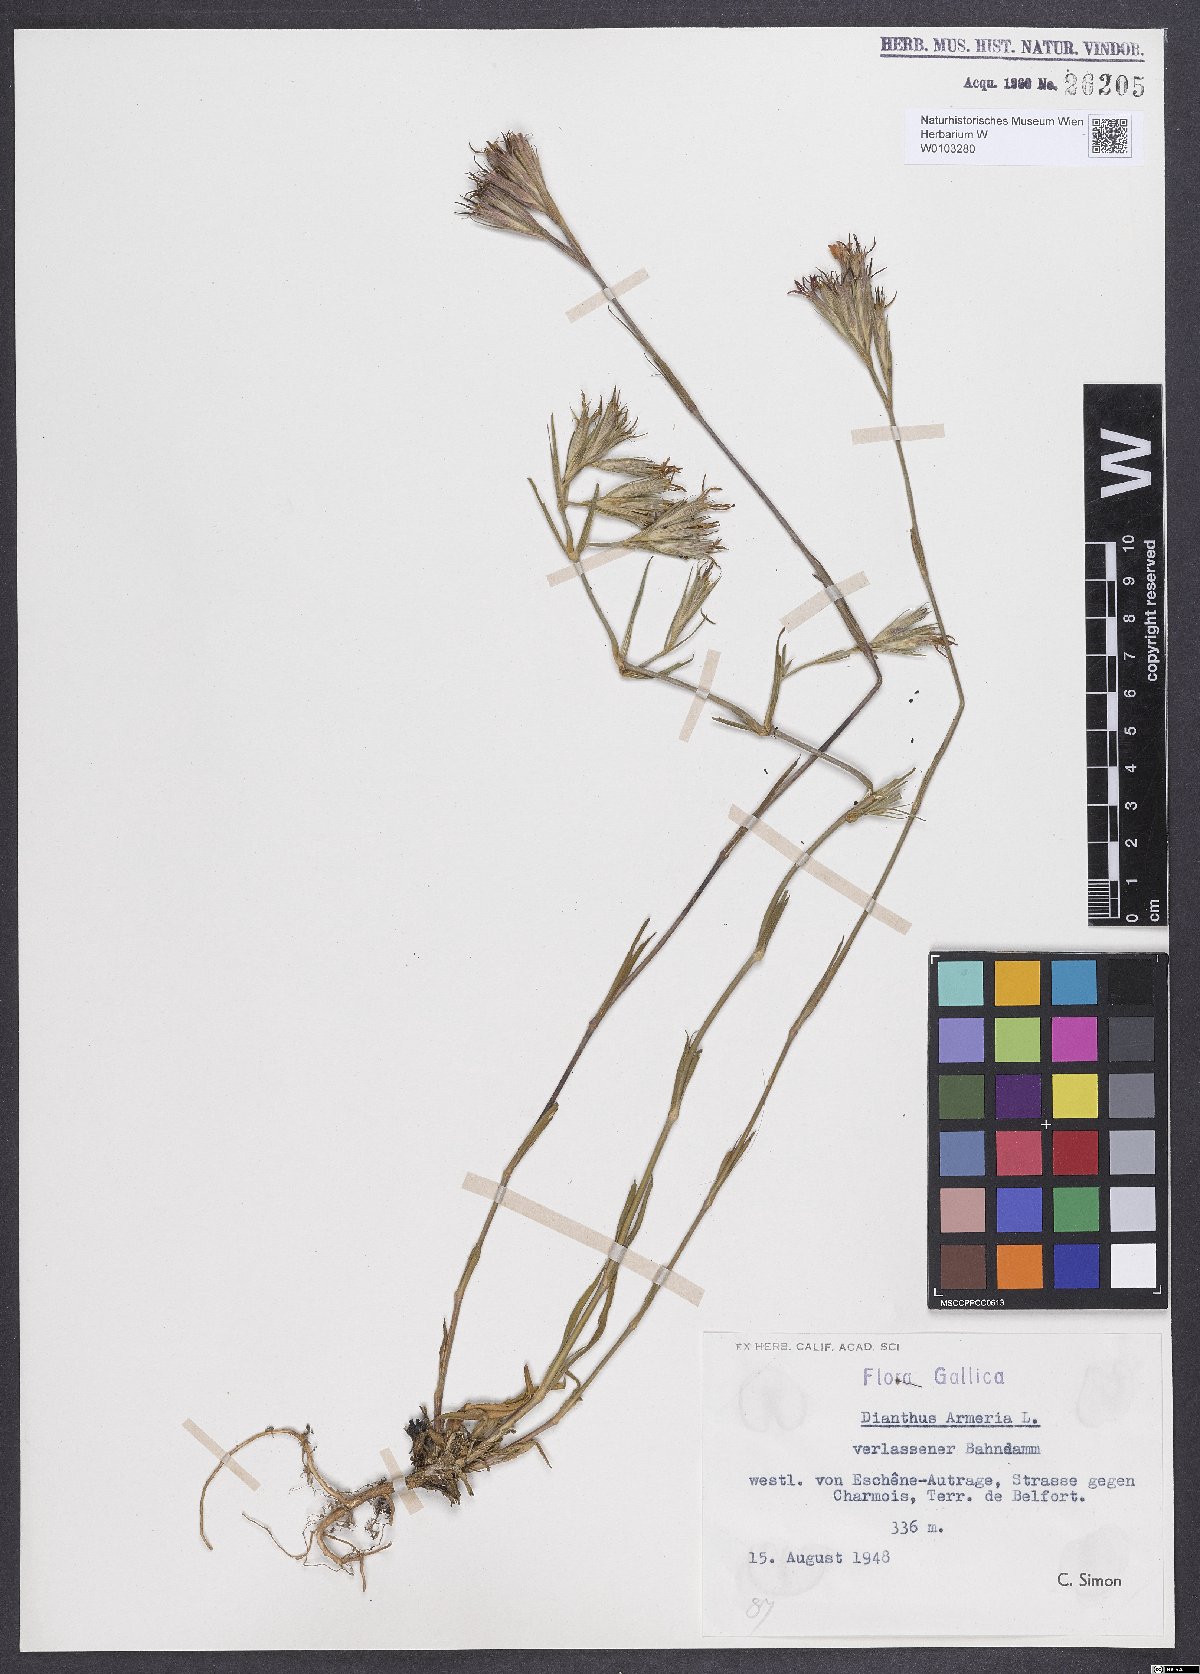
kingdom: Plantae
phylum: Tracheophyta
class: Magnoliopsida
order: Caryophyllales
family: Caryophyllaceae
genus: Dianthus
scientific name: Dianthus armeria
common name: Deptford pink
